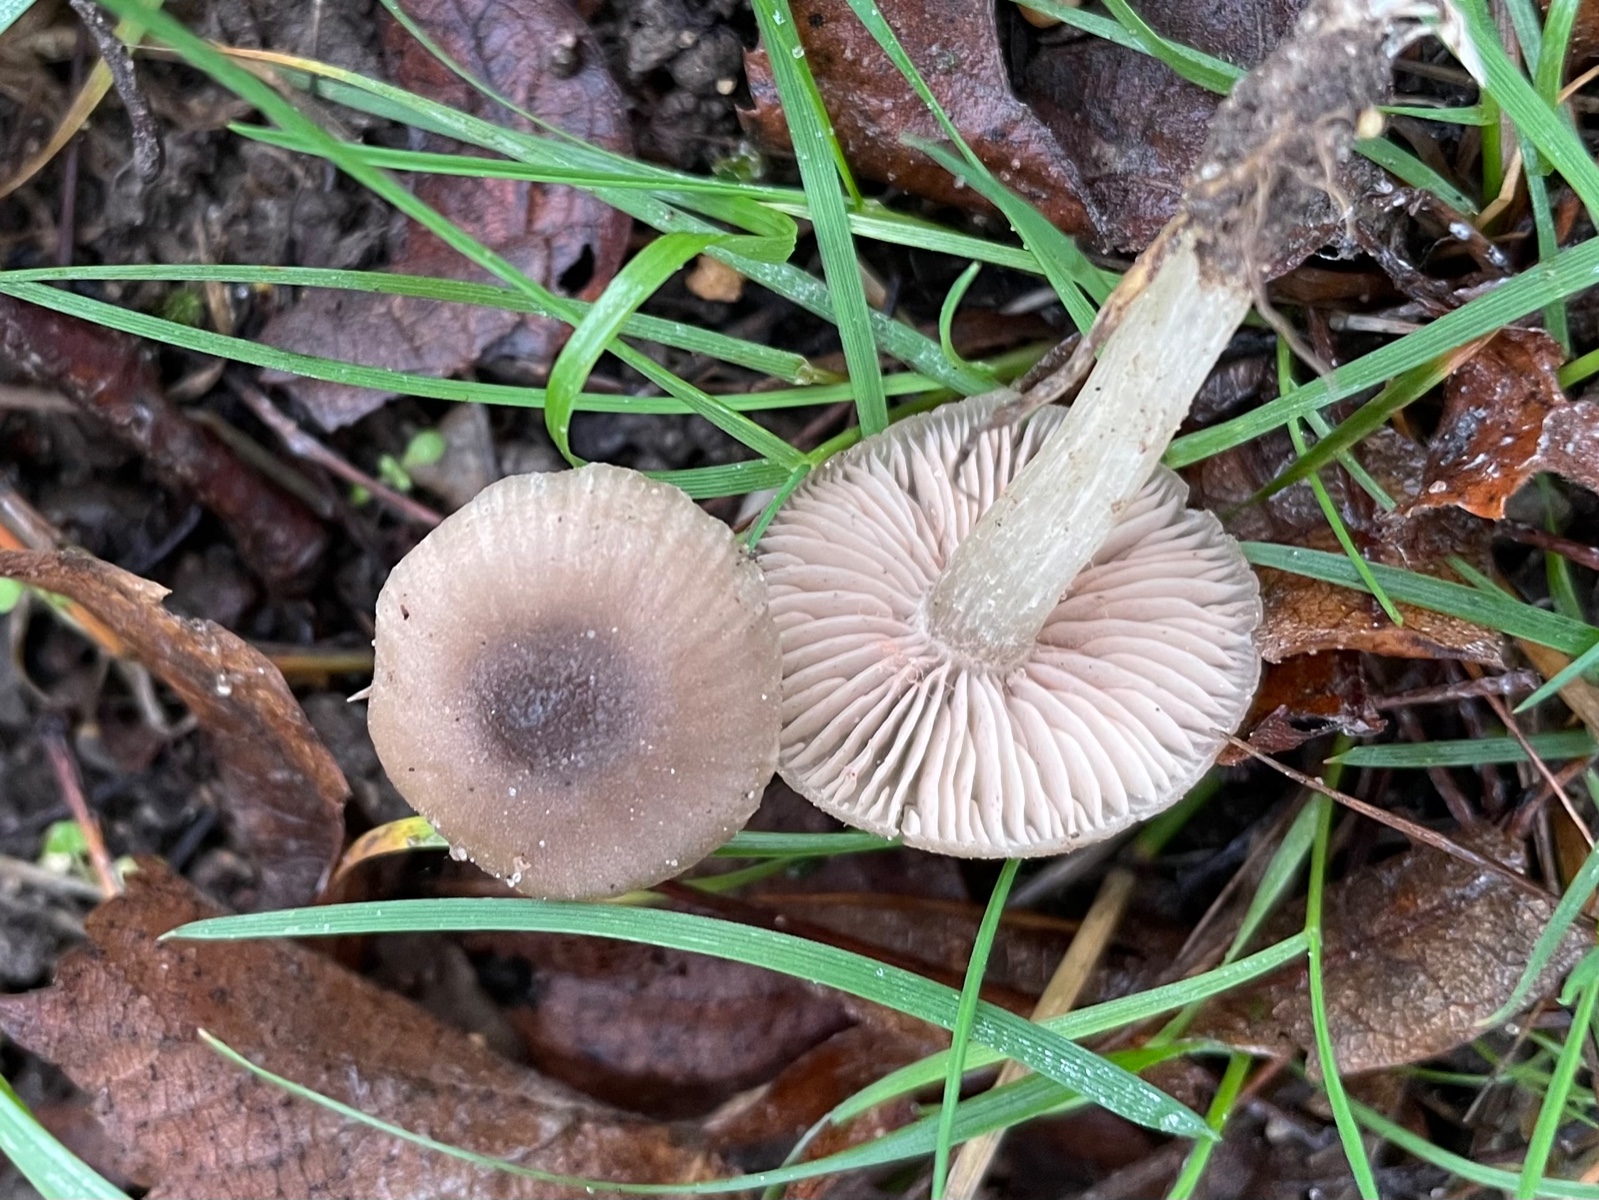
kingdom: Fungi
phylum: Basidiomycota
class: Agaricomycetes
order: Agaricales
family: Entolomataceae
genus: Entoloma
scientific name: Entoloma
